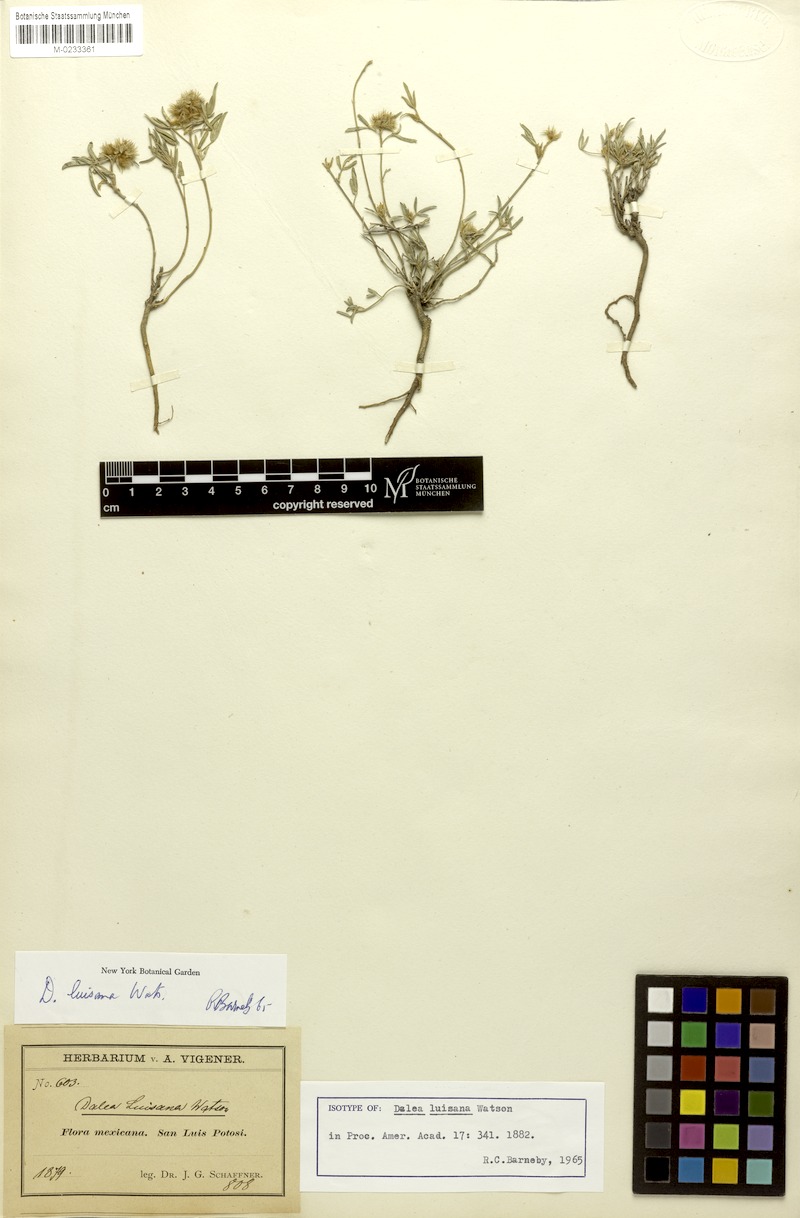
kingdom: Plantae
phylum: Tracheophyta
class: Magnoliopsida
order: Fabales
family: Fabaceae
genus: Dalea
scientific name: Dalea luisana
